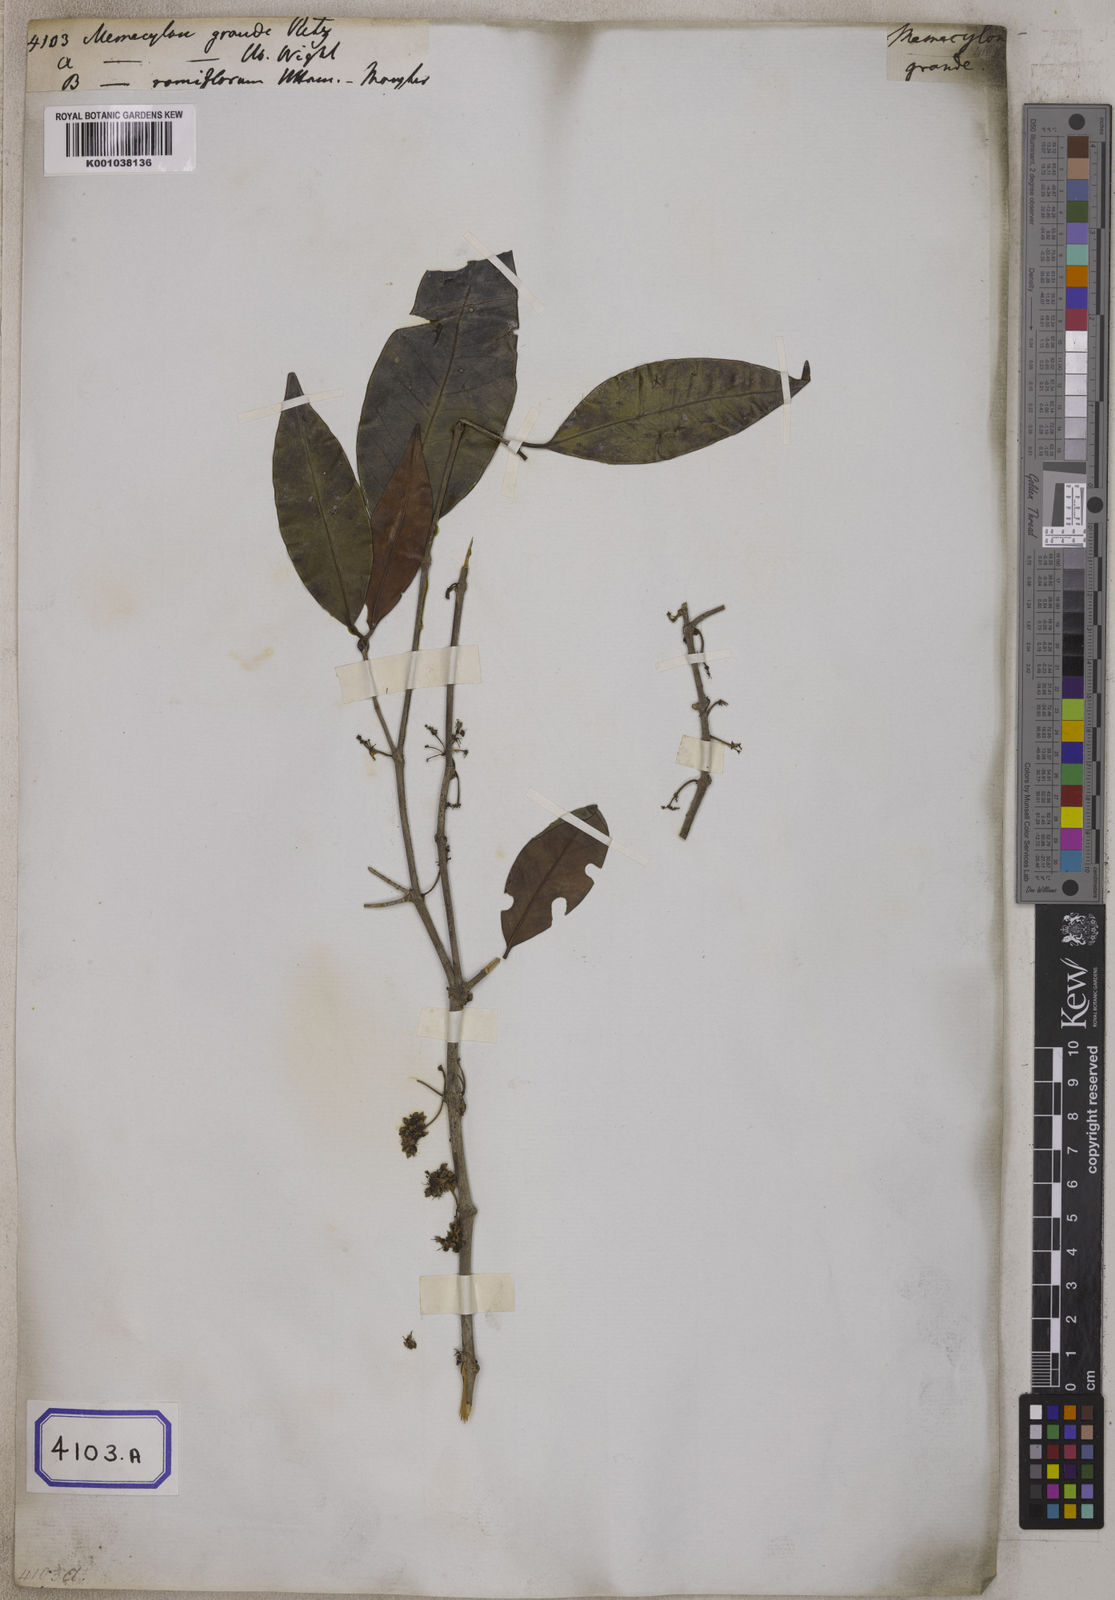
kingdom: Plantae
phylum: Tracheophyta
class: Magnoliopsida
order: Myrtales
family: Melastomataceae
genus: Memecylon
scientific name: Memecylon grande
